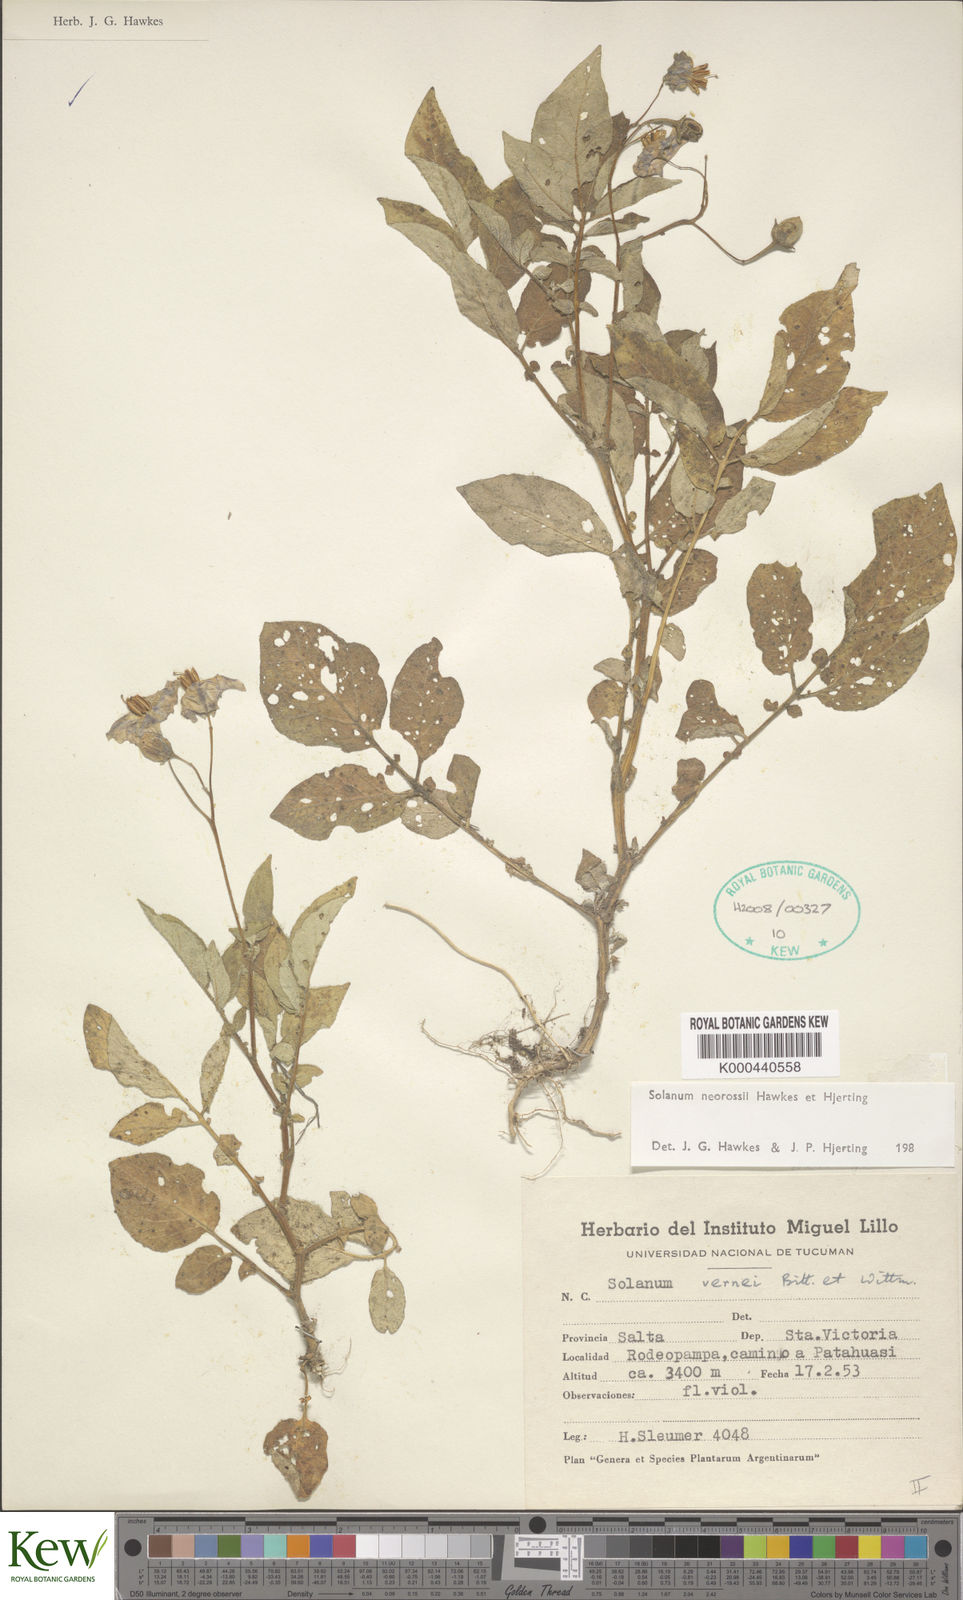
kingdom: Plantae
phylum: Tracheophyta
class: Magnoliopsida
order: Solanales
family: Solanaceae
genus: Solanum
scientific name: Solanum neorossii
